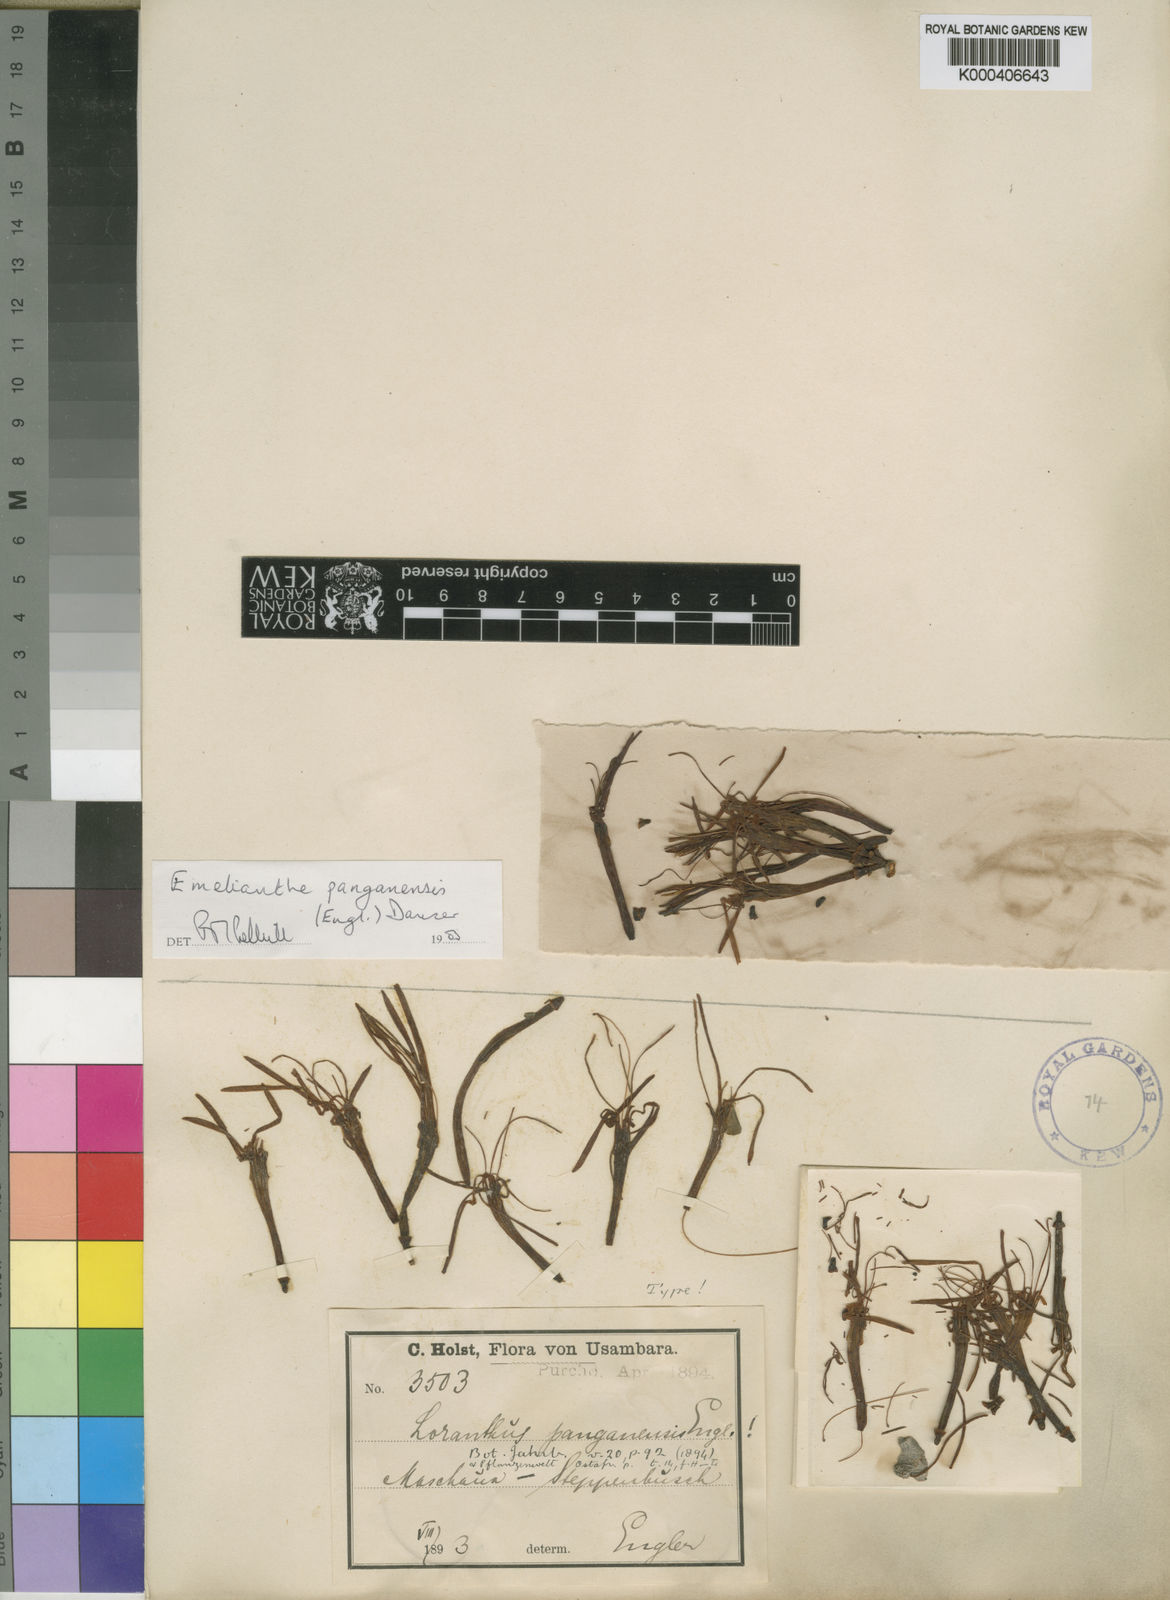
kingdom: Plantae
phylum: Tracheophyta
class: Magnoliopsida
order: Santalales
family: Loranthaceae
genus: Emelianthe
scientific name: Emelianthe panganensis
